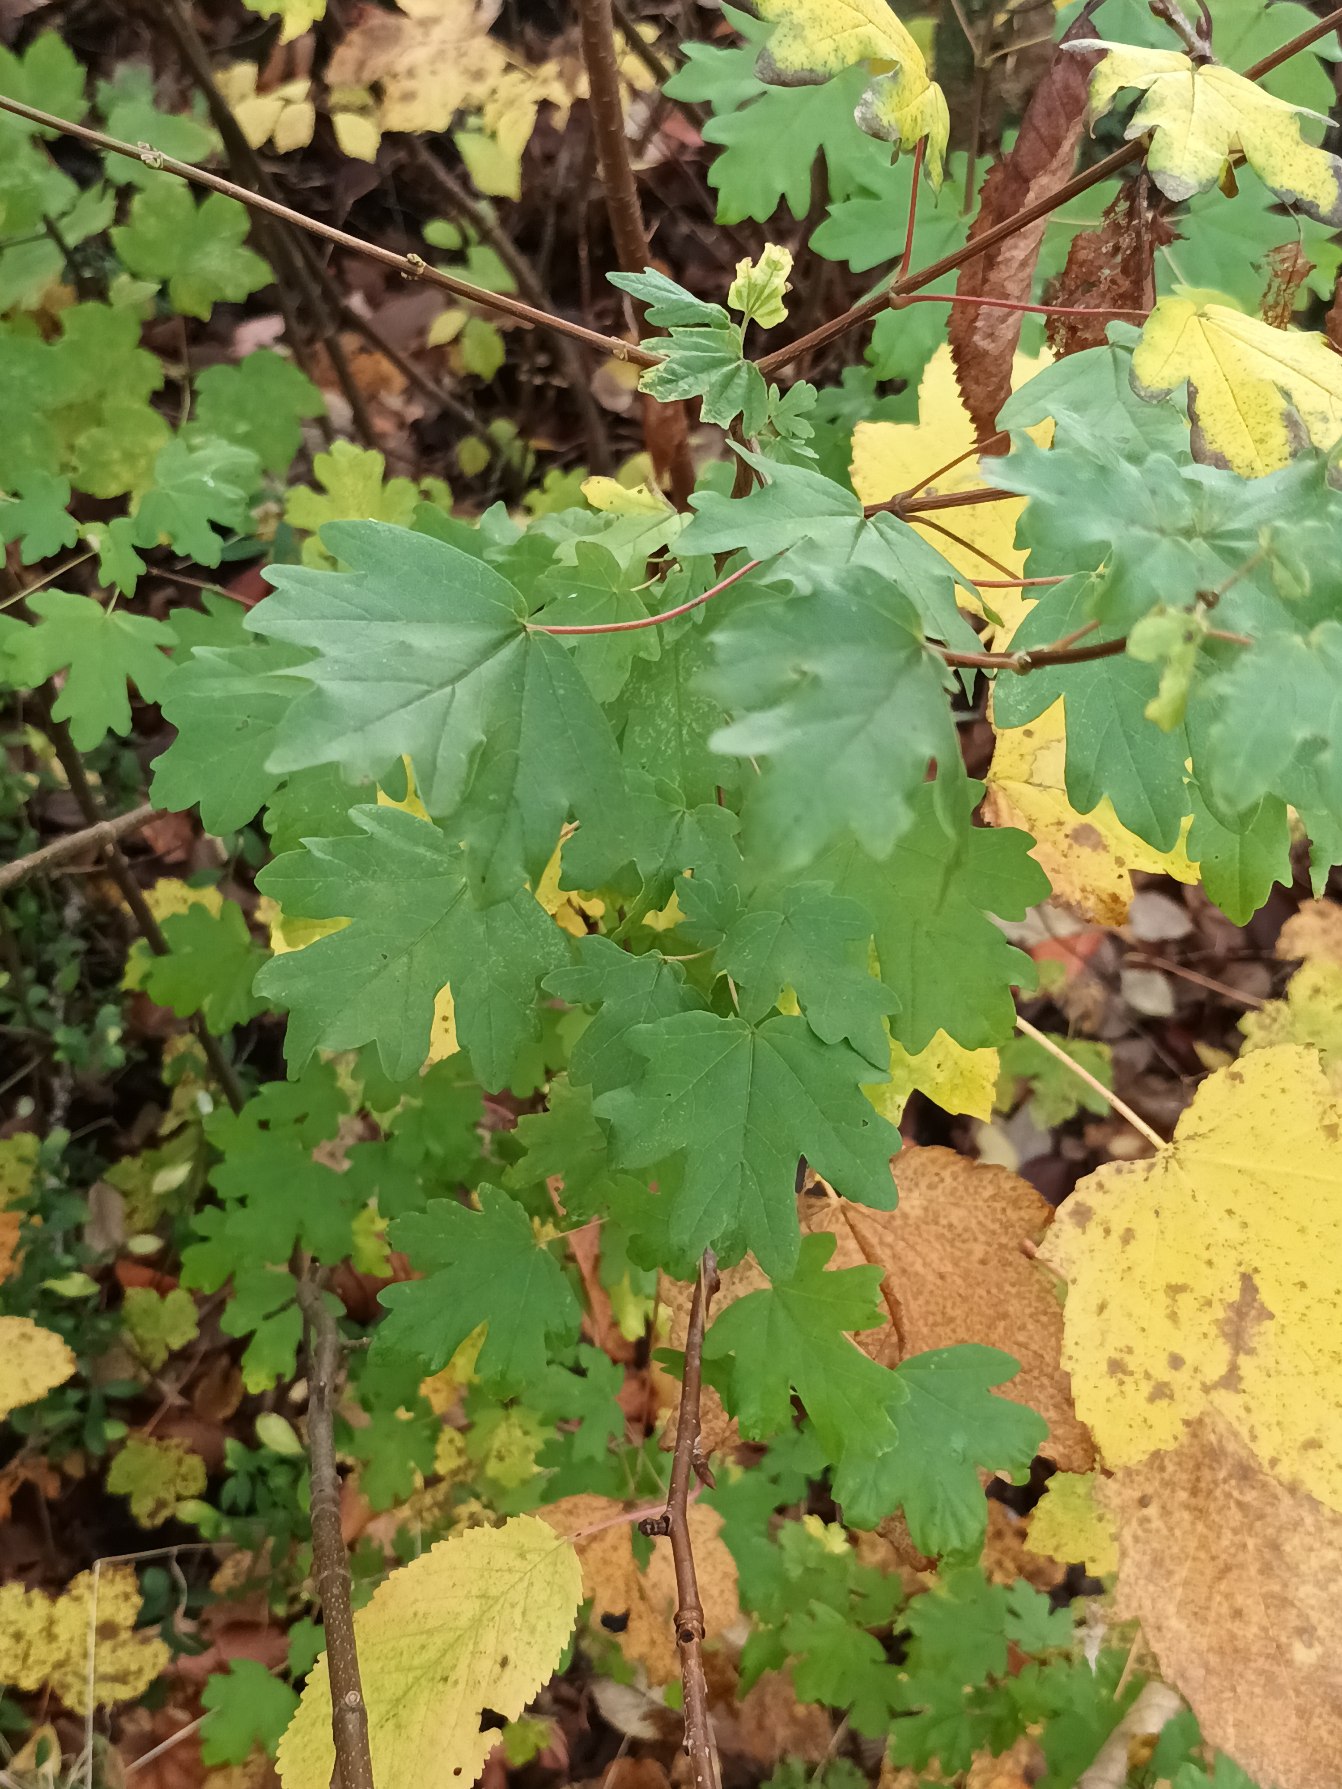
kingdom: Plantae
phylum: Tracheophyta
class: Magnoliopsida
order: Sapindales
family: Sapindaceae
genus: Acer
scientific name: Acer campestre
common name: Navr
